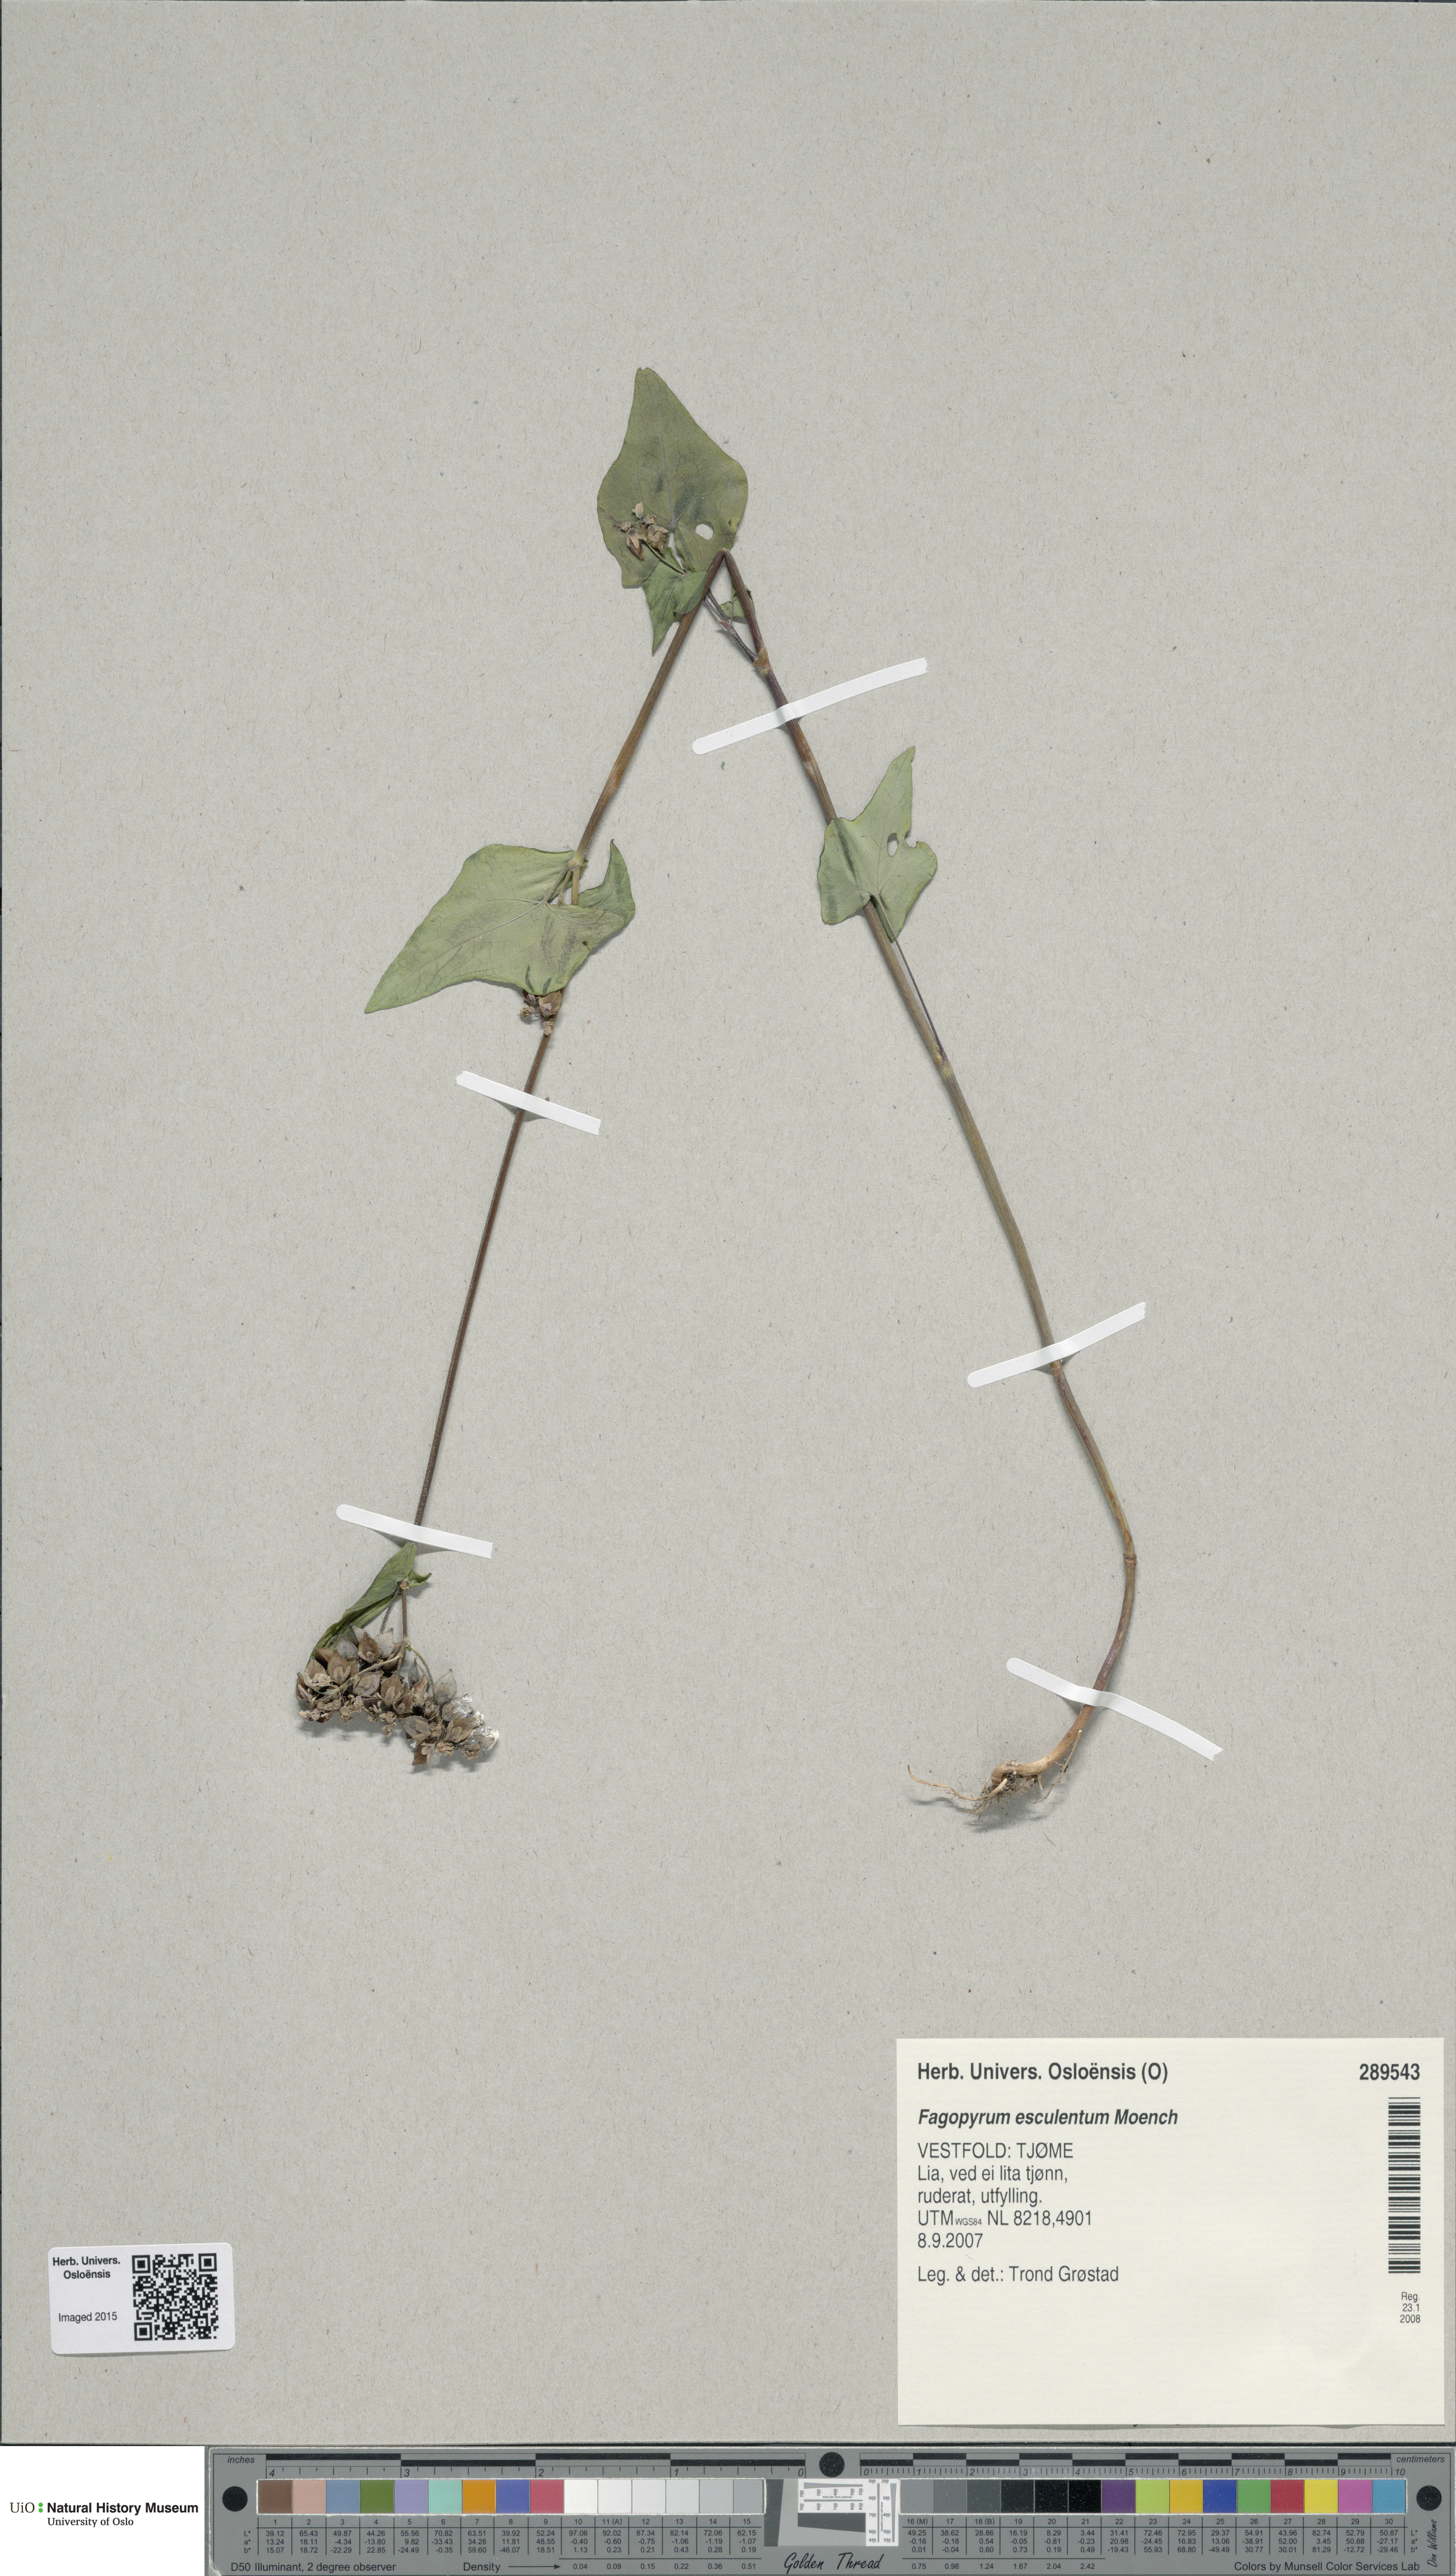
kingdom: Plantae
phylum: Tracheophyta
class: Magnoliopsida
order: Caryophyllales
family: Polygonaceae
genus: Fagopyrum
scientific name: Fagopyrum esculentum
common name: Buckwheat
